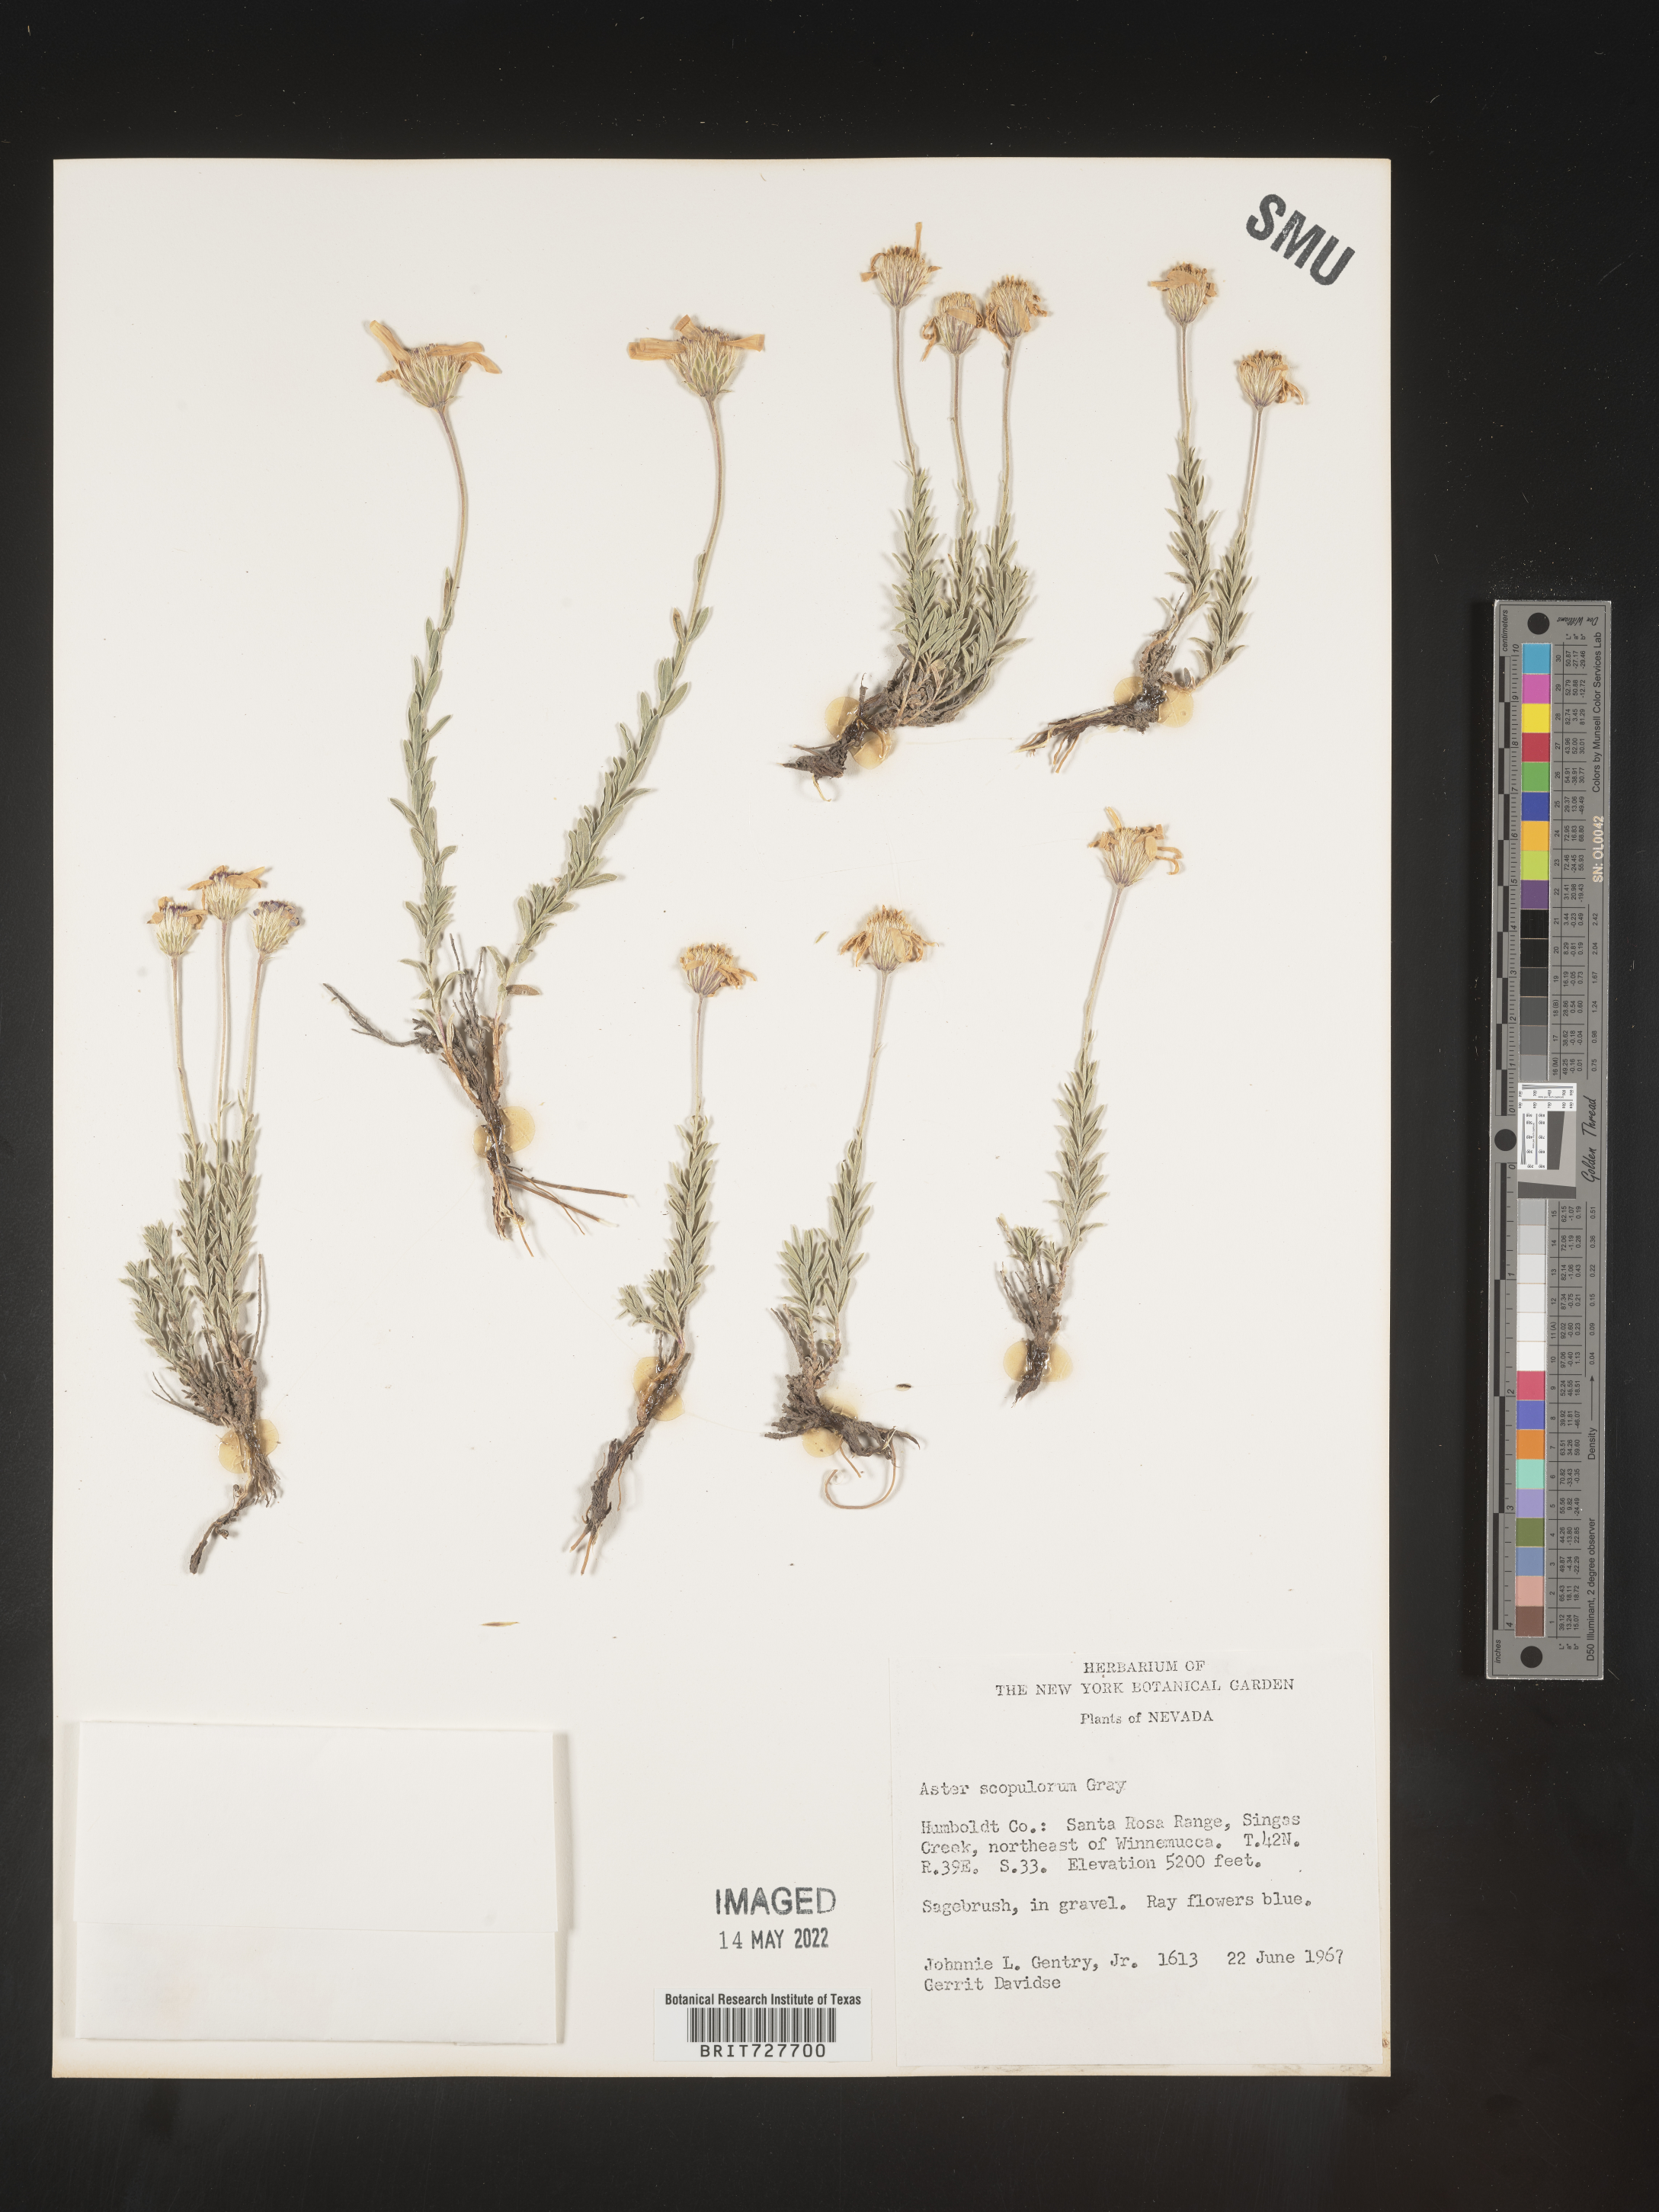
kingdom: Plantae
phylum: Tracheophyta
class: Magnoliopsida
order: Asterales
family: Asteraceae
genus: Ionactis
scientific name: Ionactis alpina
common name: Crag aster
